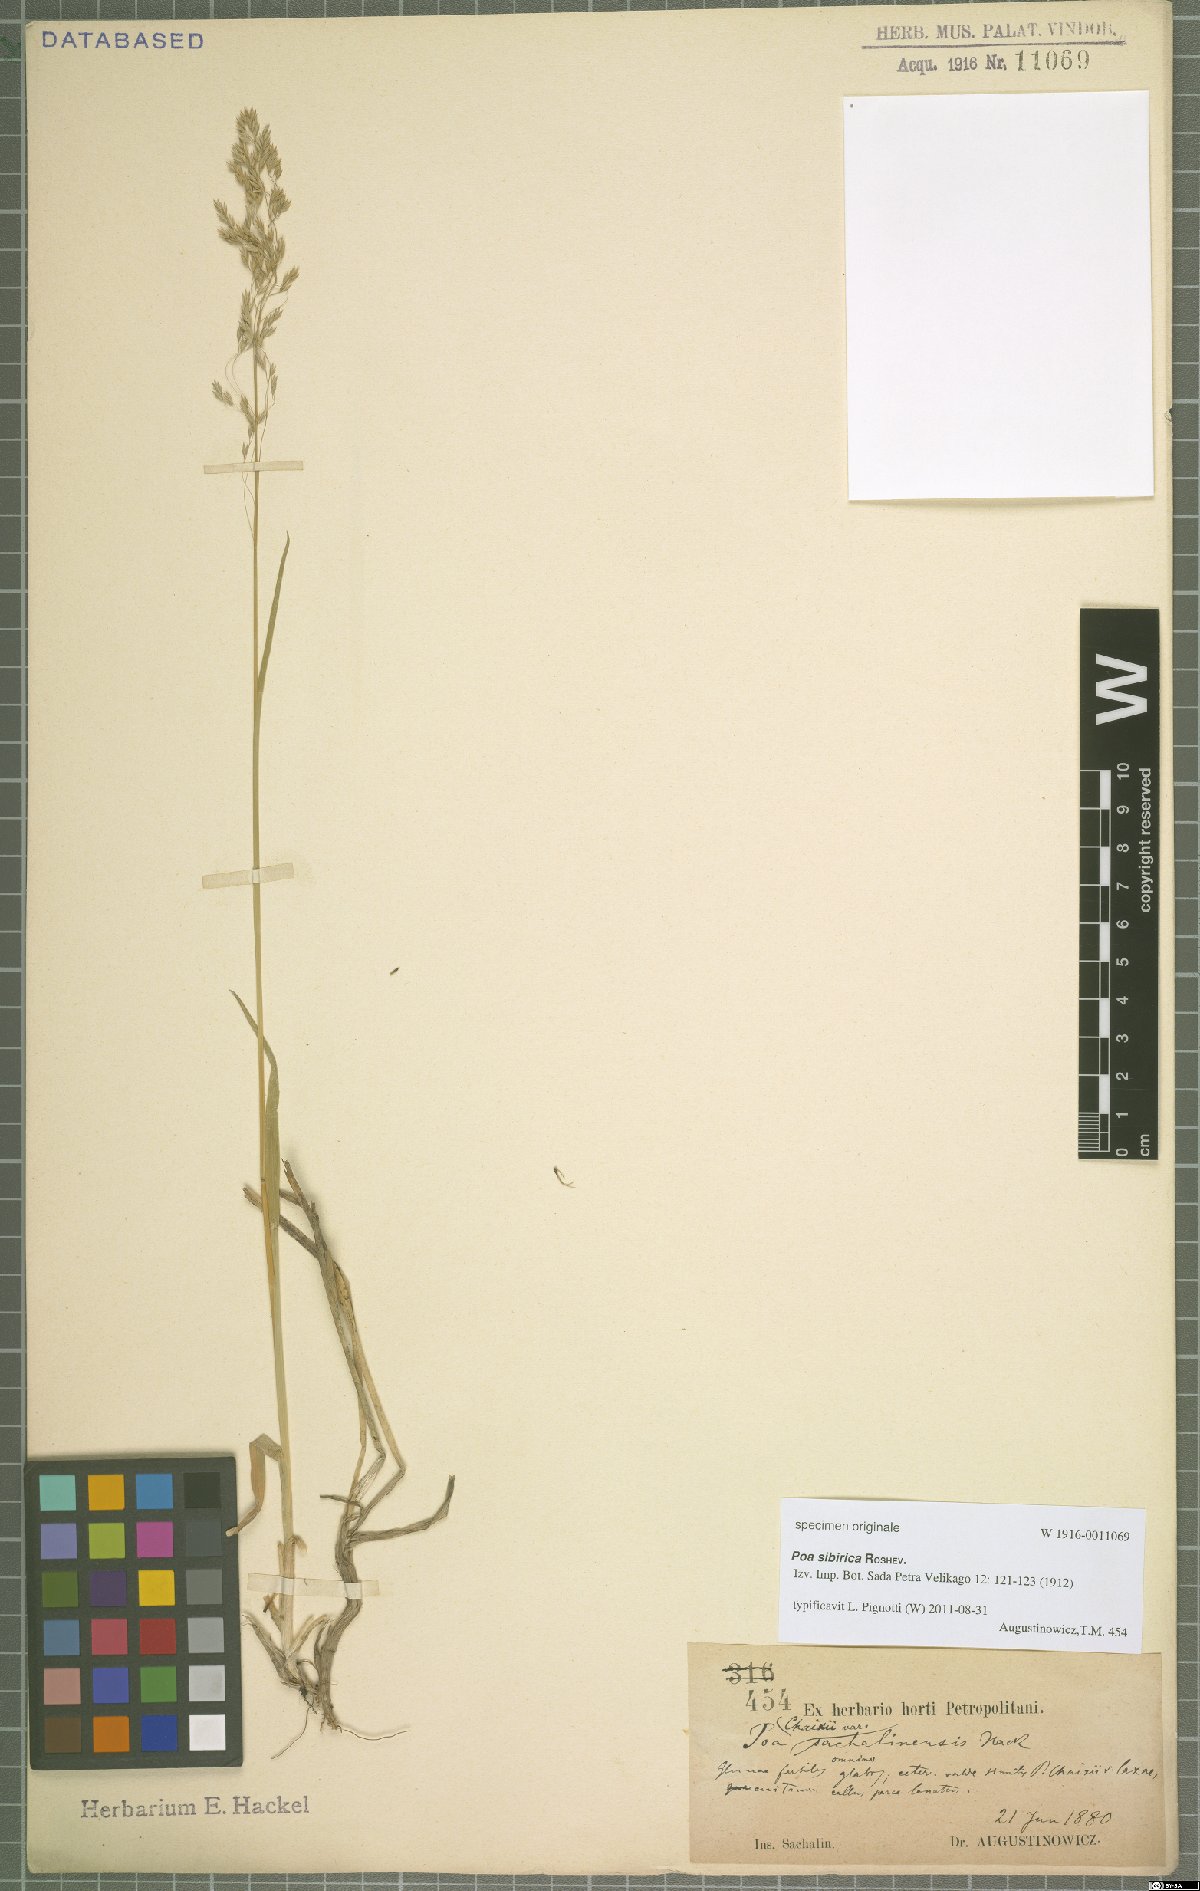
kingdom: Plantae
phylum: Tracheophyta
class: Liliopsida
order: Poales
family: Poaceae
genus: Poa
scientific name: Poa sibirica
